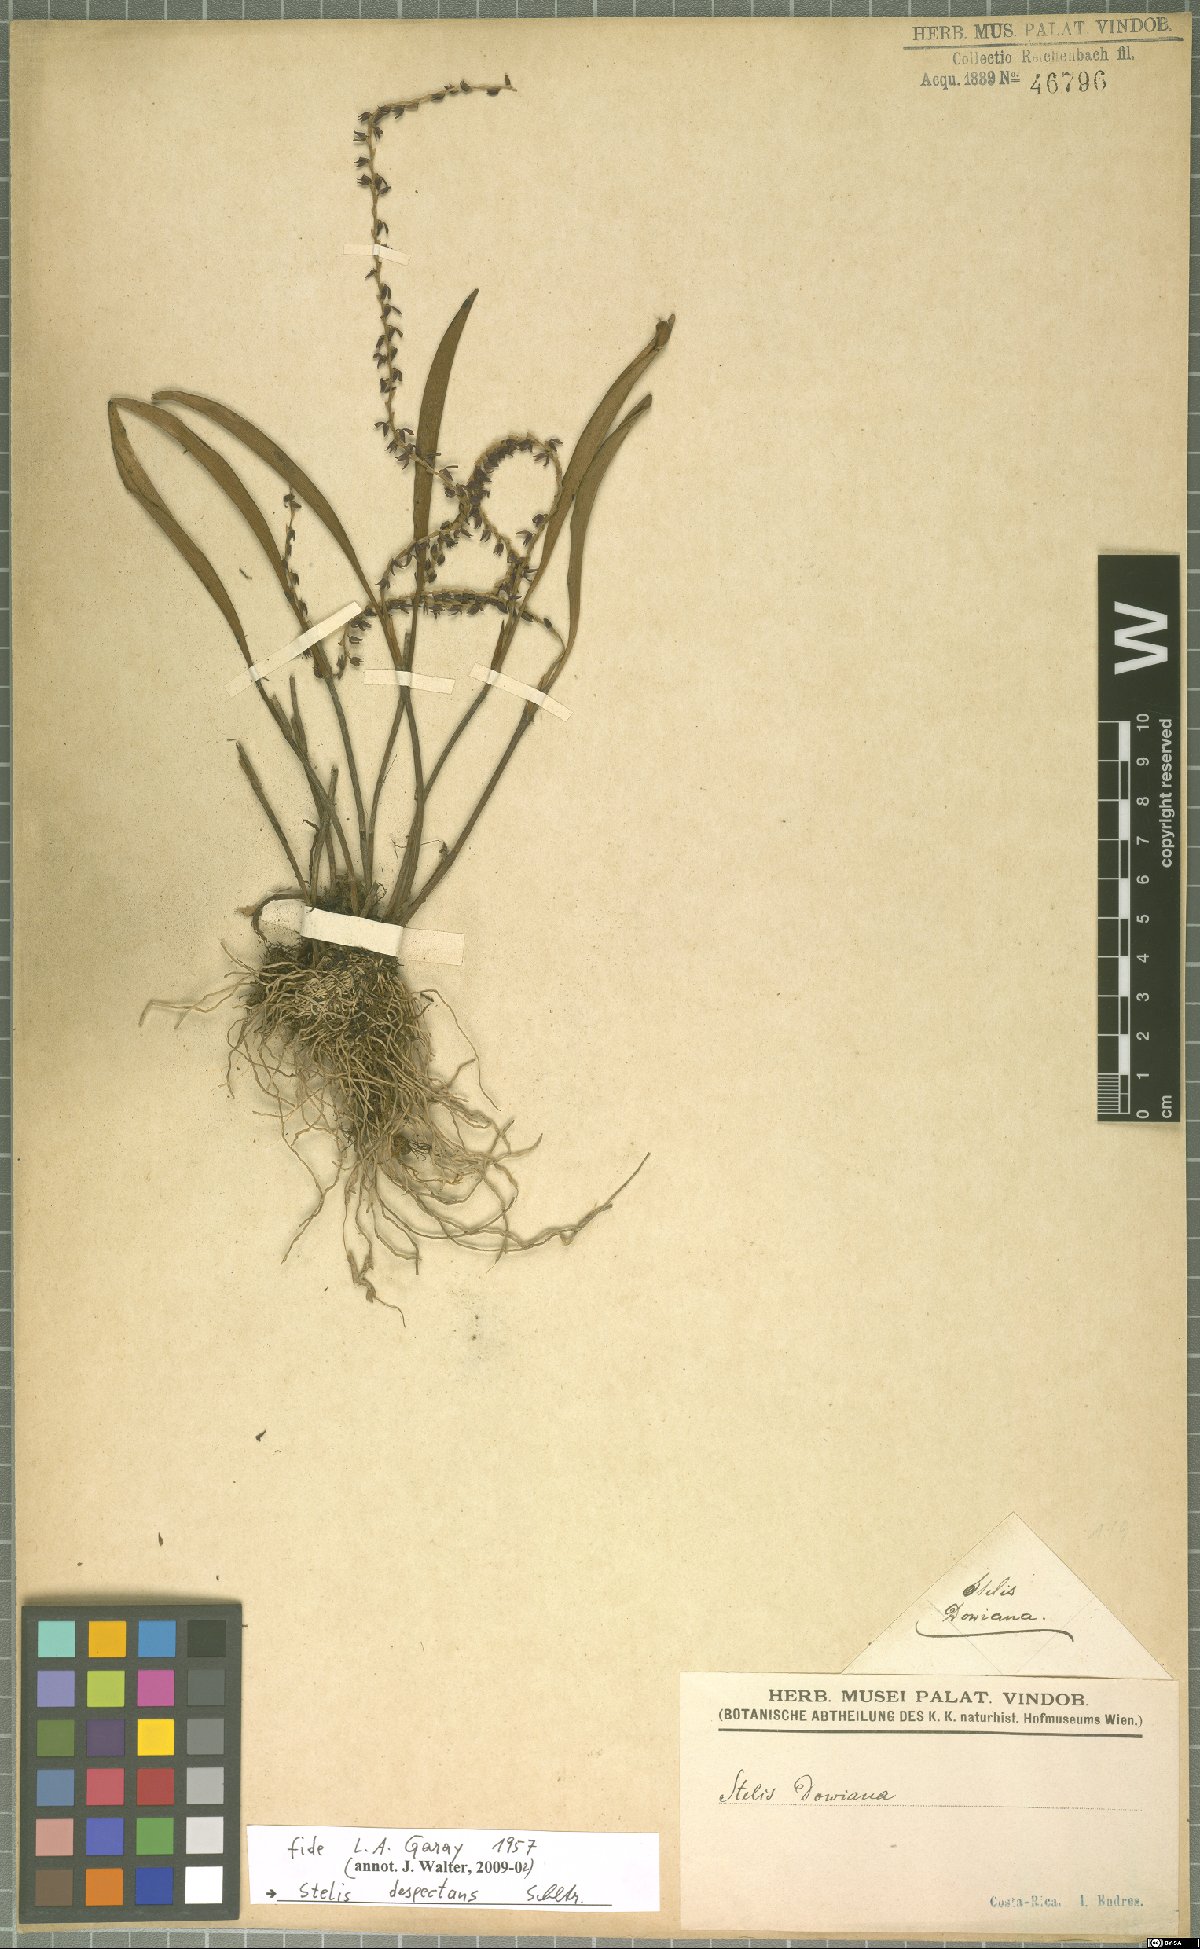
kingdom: Plantae
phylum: Tracheophyta
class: Liliopsida
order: Asparagales
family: Orchidaceae
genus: Stelis
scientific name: Stelis despectans
